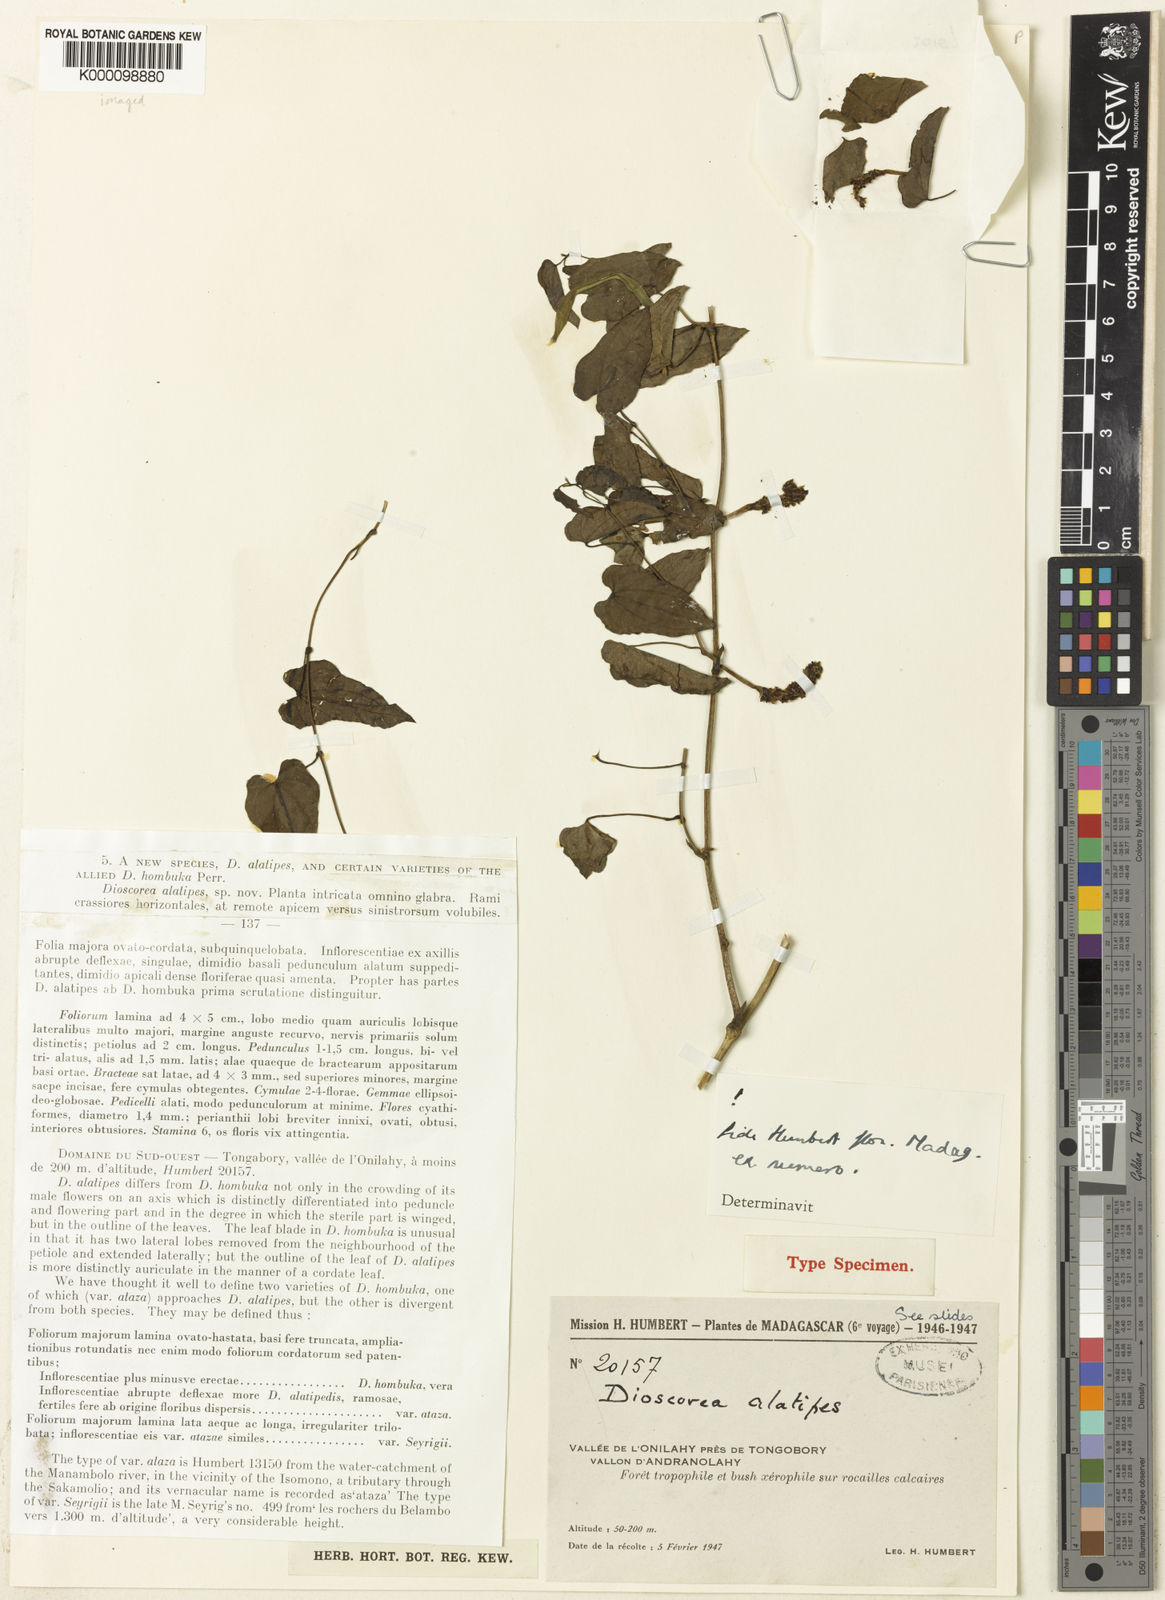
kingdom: Plantae
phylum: Tracheophyta
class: Liliopsida
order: Dioscoreales
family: Dioscoreaceae
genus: Dioscorea
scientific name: Dioscorea alatipes
